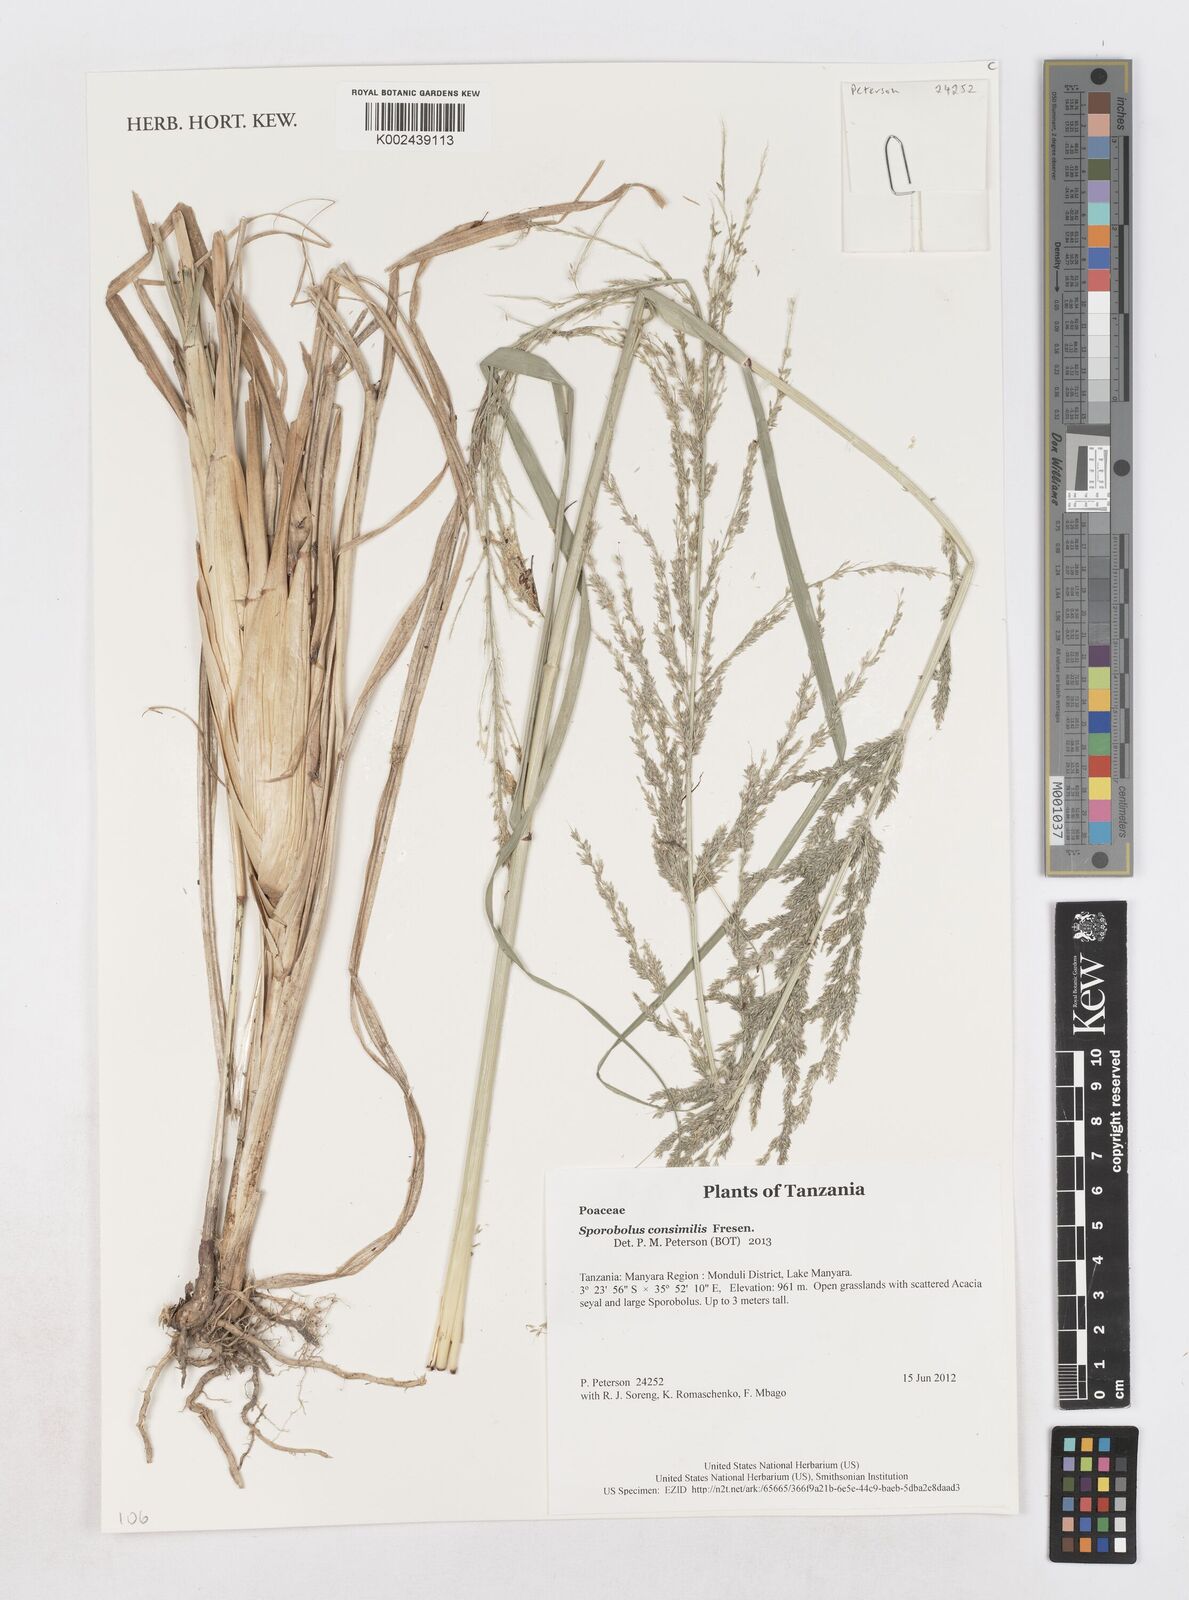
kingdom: Plantae
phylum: Tracheophyta
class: Liliopsida
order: Poales
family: Poaceae
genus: Sporobolus
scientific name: Sporobolus consimilis
